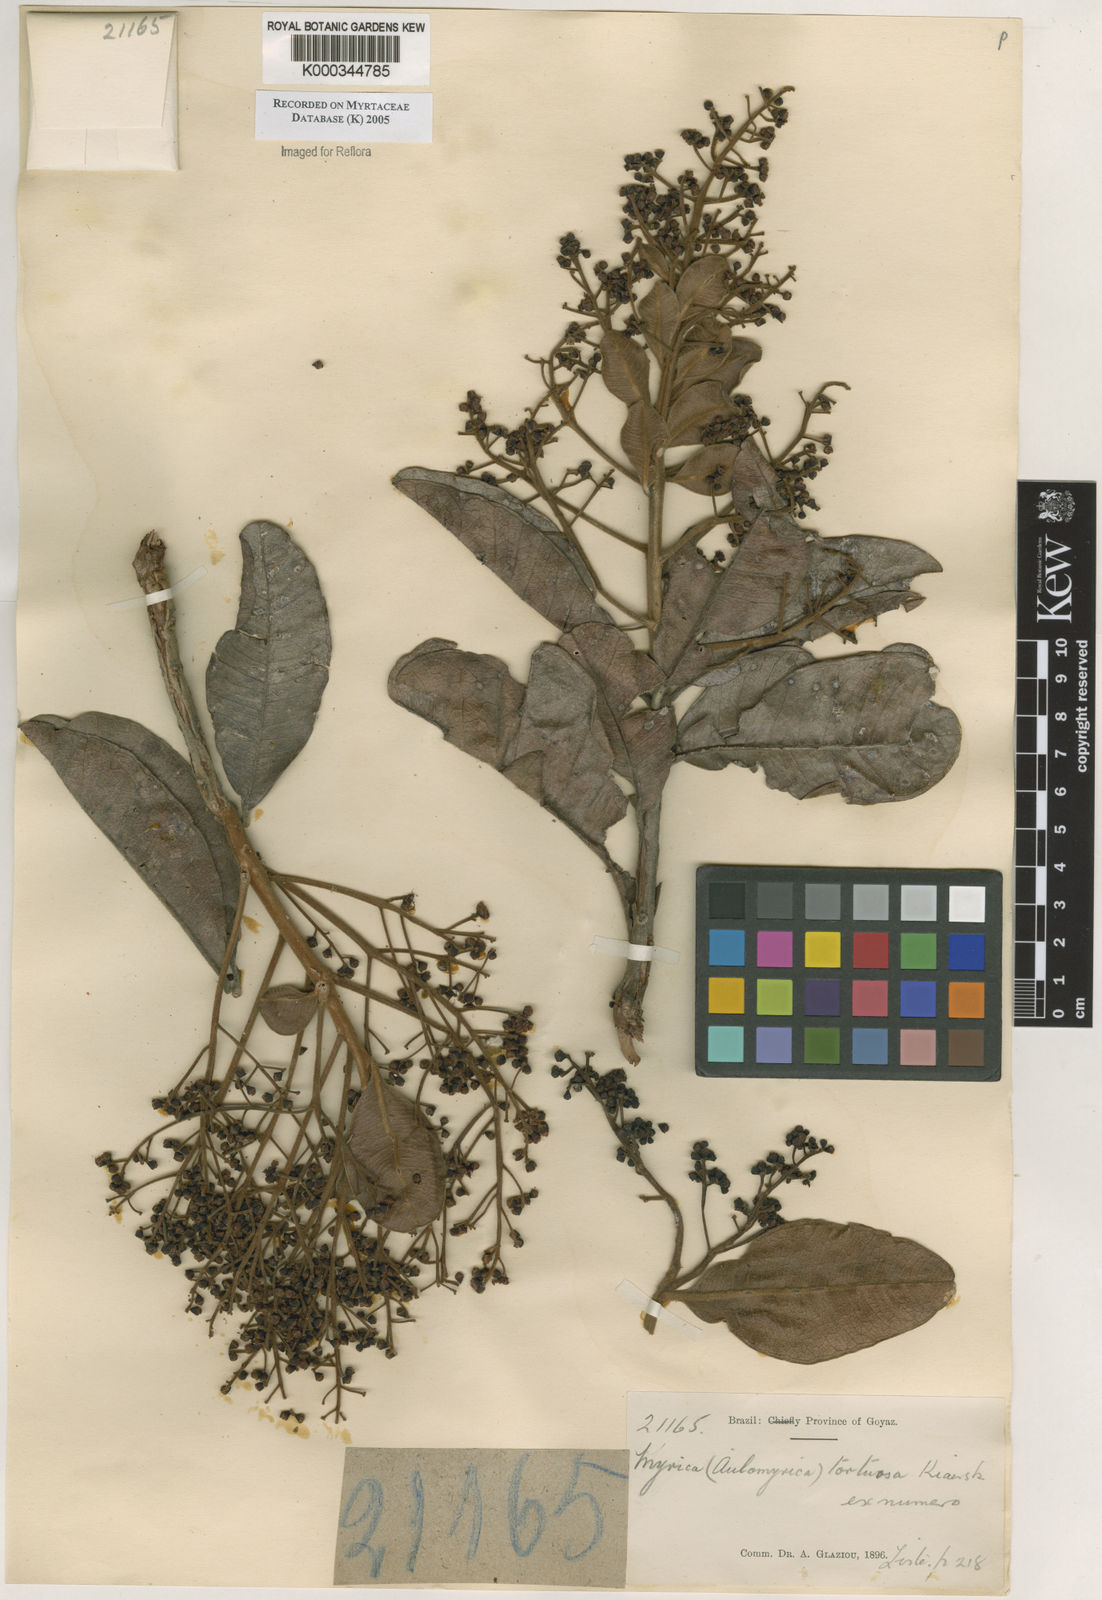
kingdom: Plantae
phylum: Tracheophyta
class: Magnoliopsida
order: Myrtales
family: Myrtaceae
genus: Myrcia
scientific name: Myrcia tortuosa
